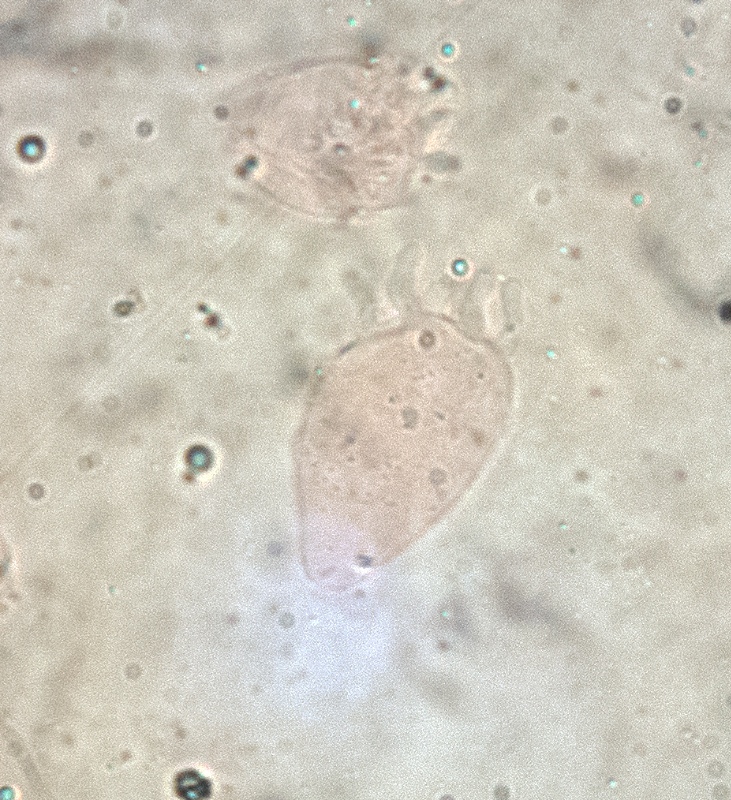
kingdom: Fungi
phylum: Basidiomycota
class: Agaricomycetes
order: Agaricales
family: Mycenaceae
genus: Mycena
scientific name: Mycena
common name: huesvamp
